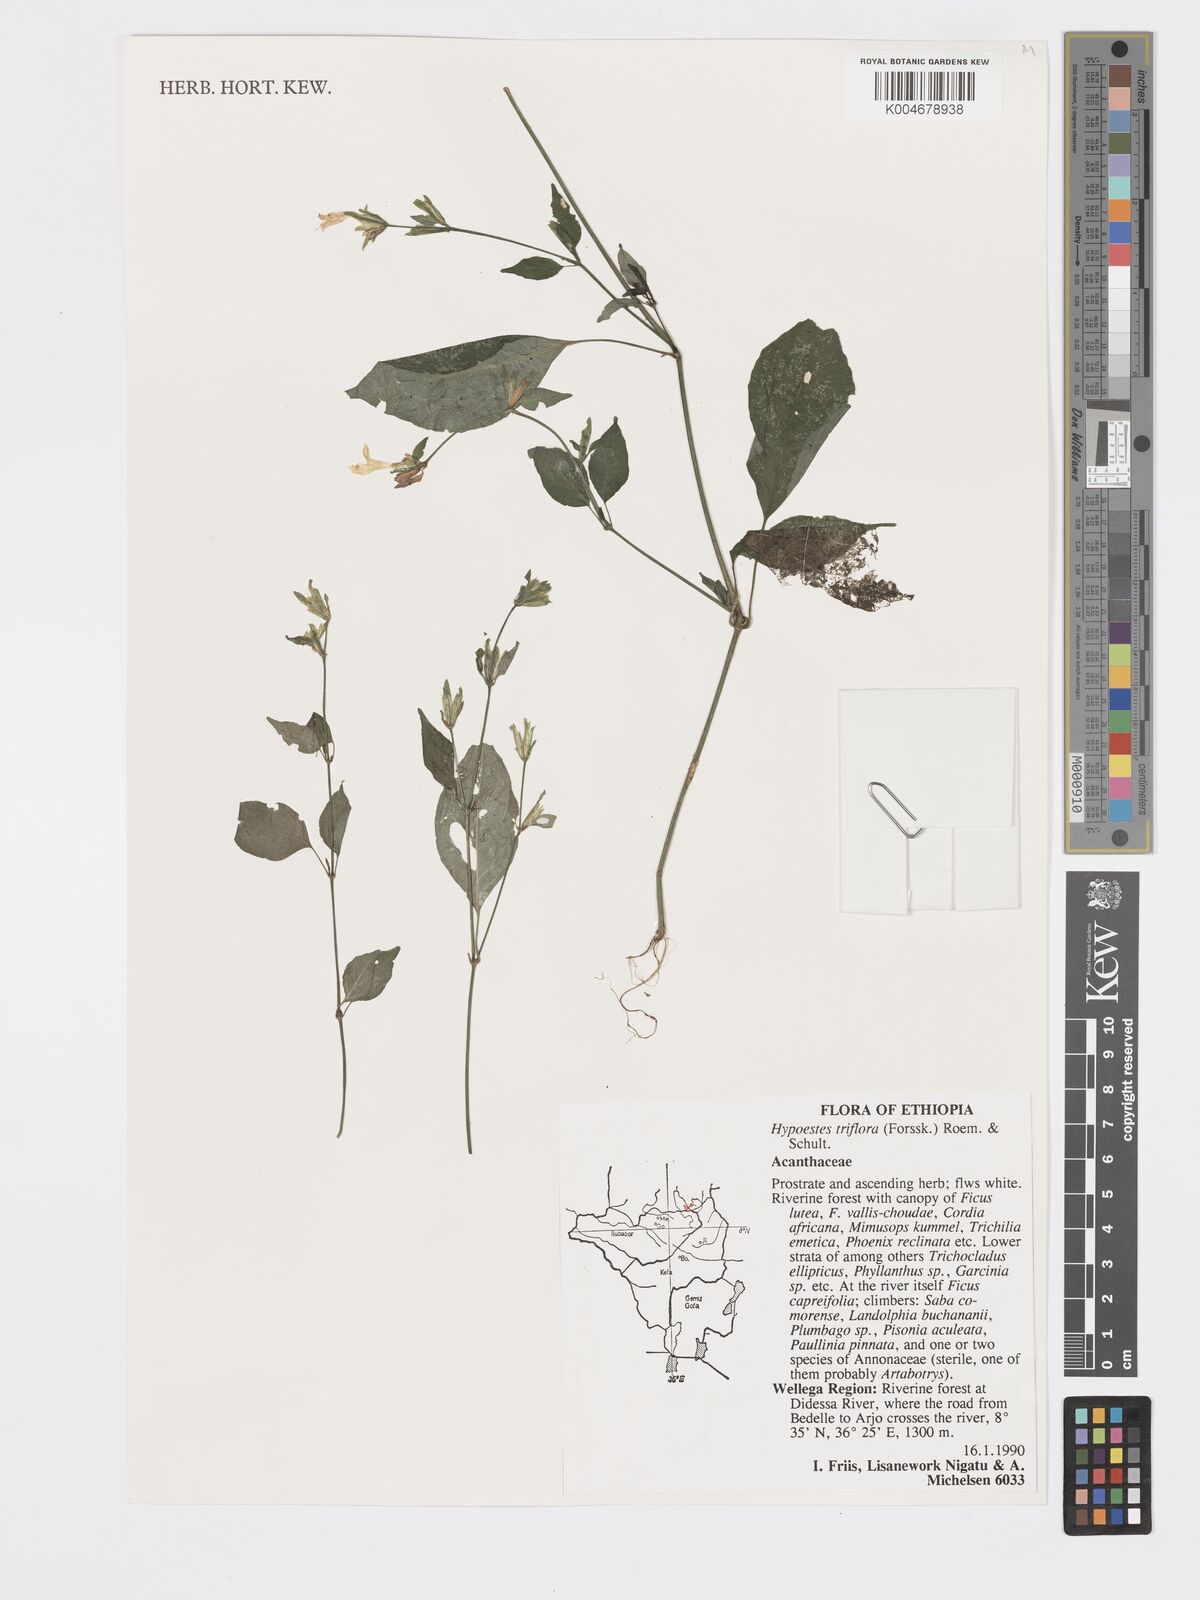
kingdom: Plantae
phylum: Tracheophyta
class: Magnoliopsida
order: Lamiales
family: Acanthaceae
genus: Hypoestes
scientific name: Hypoestes triflora
